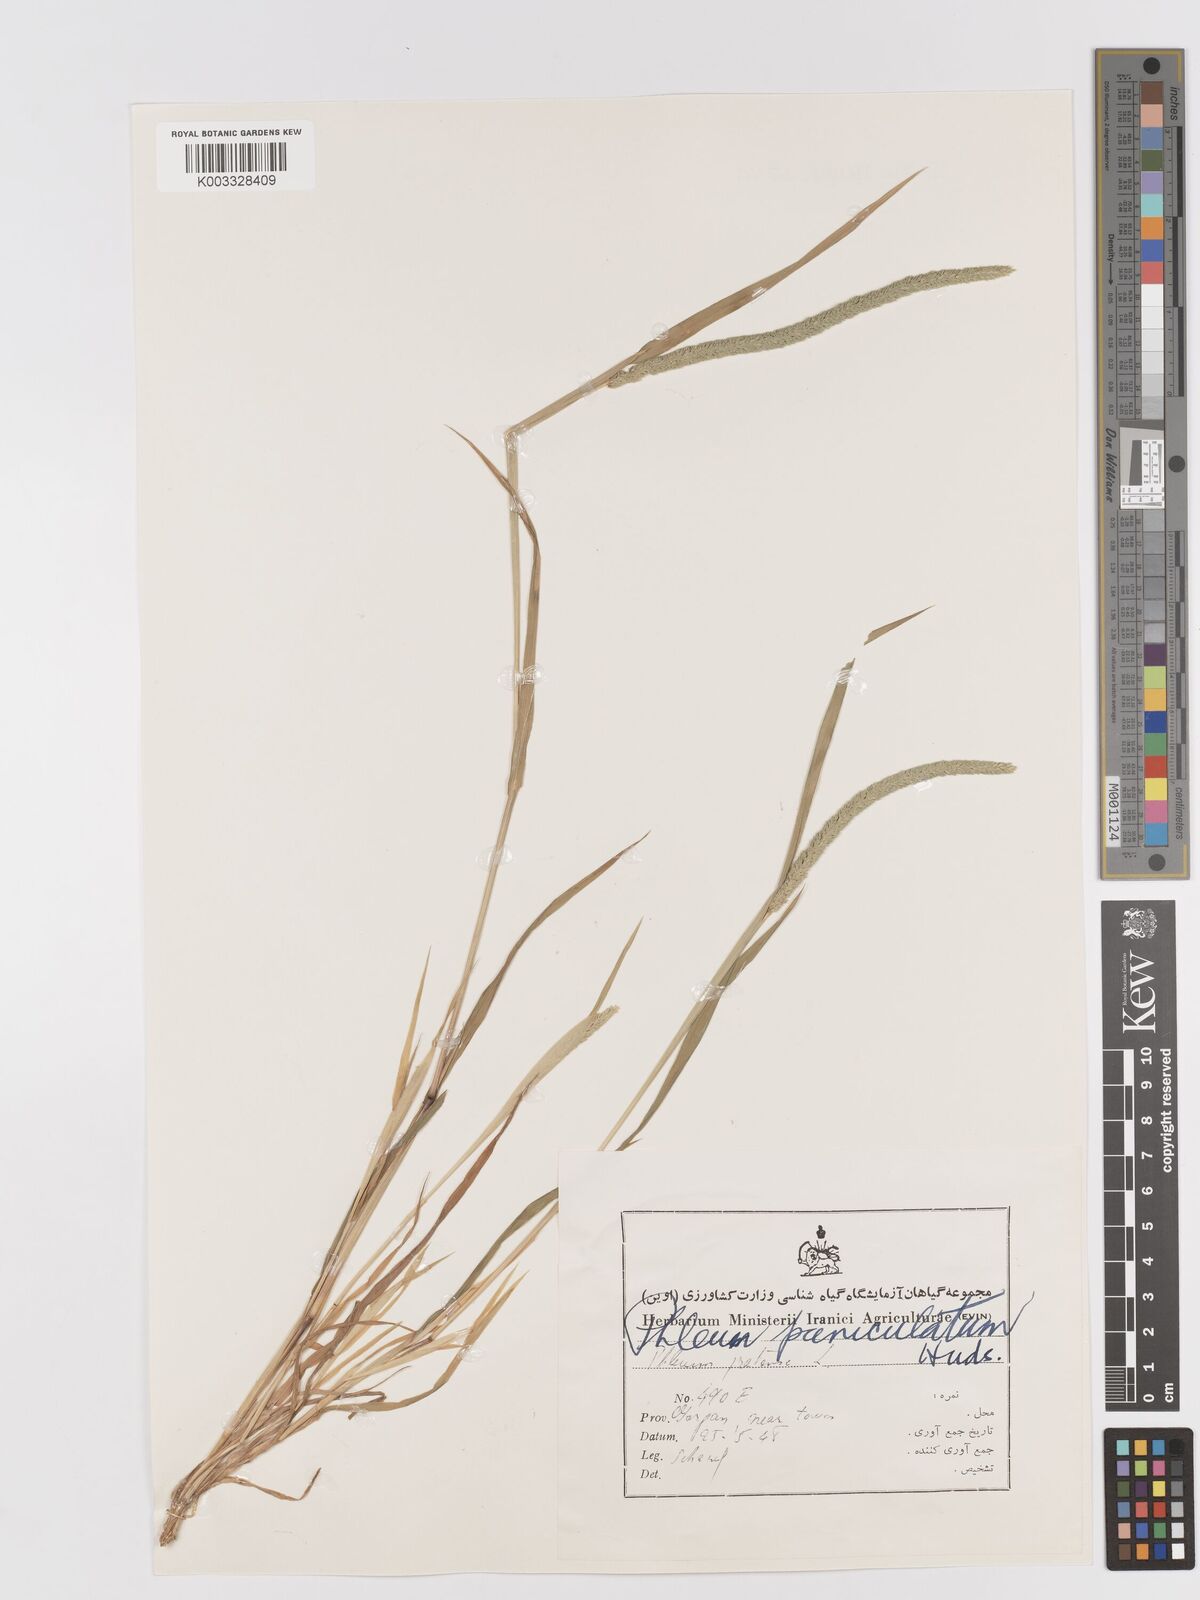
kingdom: Plantae
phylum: Tracheophyta
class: Liliopsida
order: Poales
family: Poaceae
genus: Phleum
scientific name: Phleum paniculatum
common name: British timothy
